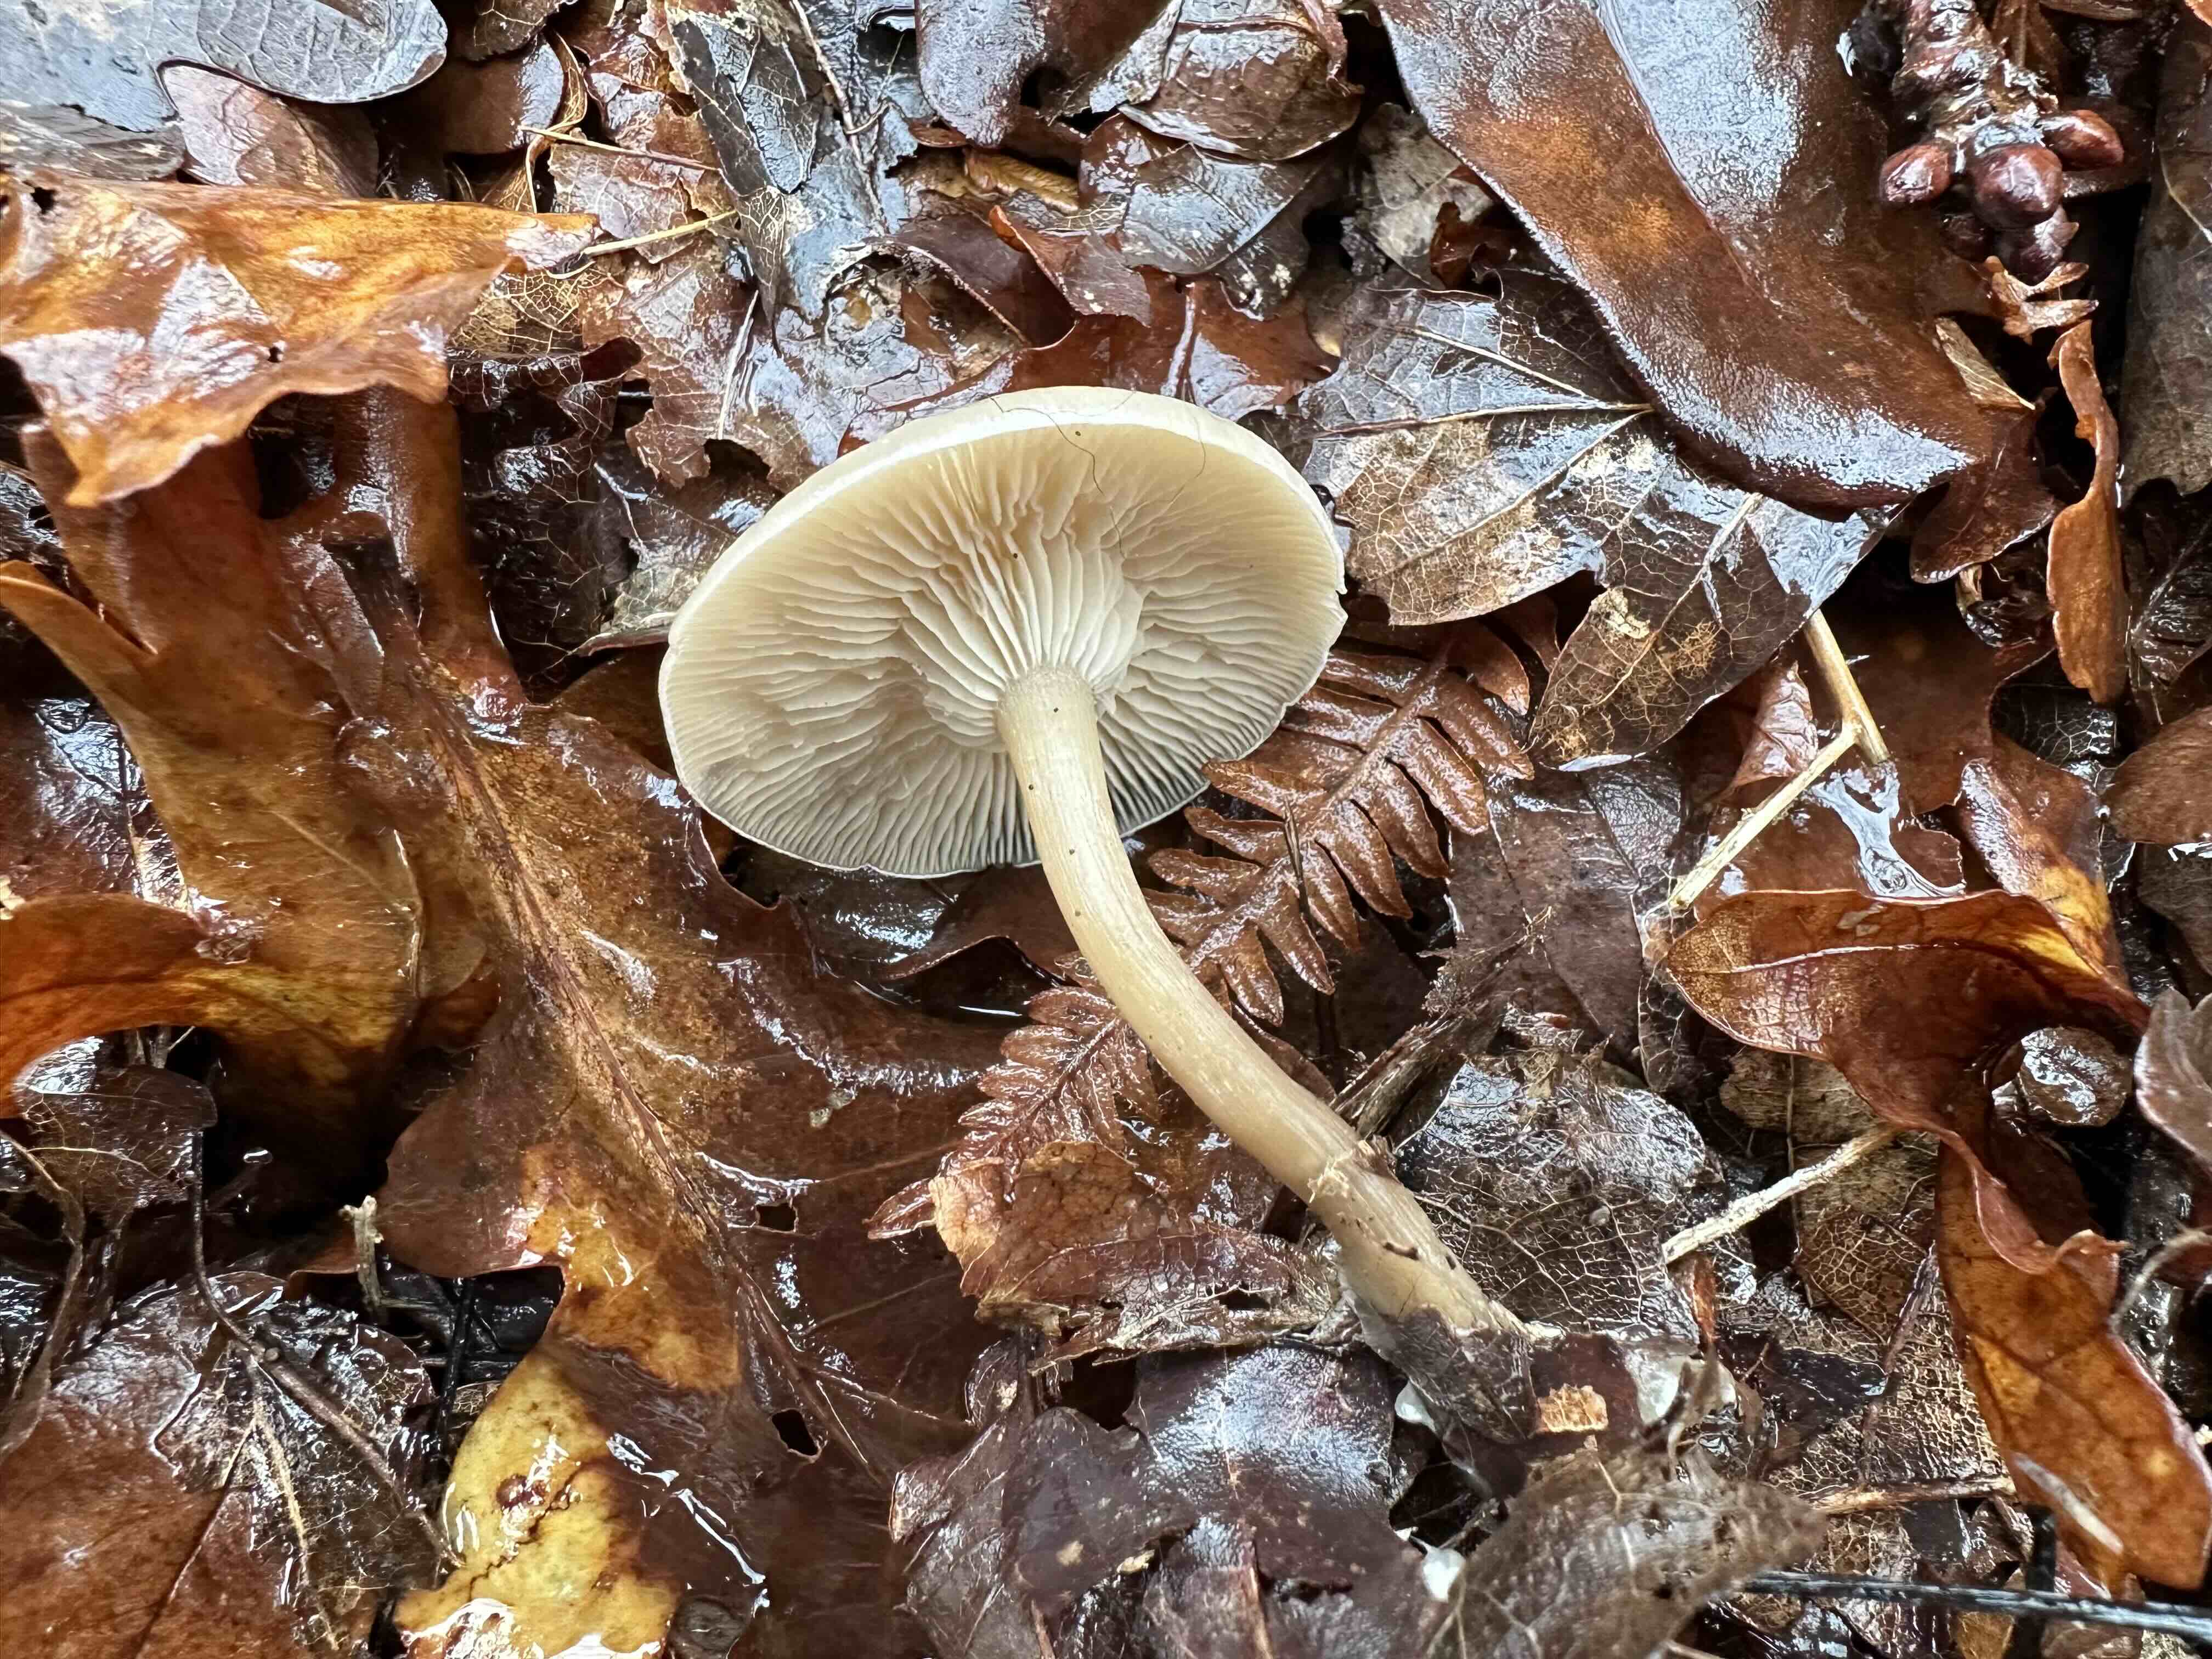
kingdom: Fungi
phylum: Basidiomycota
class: Agaricomycetes
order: Agaricales
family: Tricholomataceae
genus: Clitocybe
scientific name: Clitocybe metachroa
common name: grå tragthat
